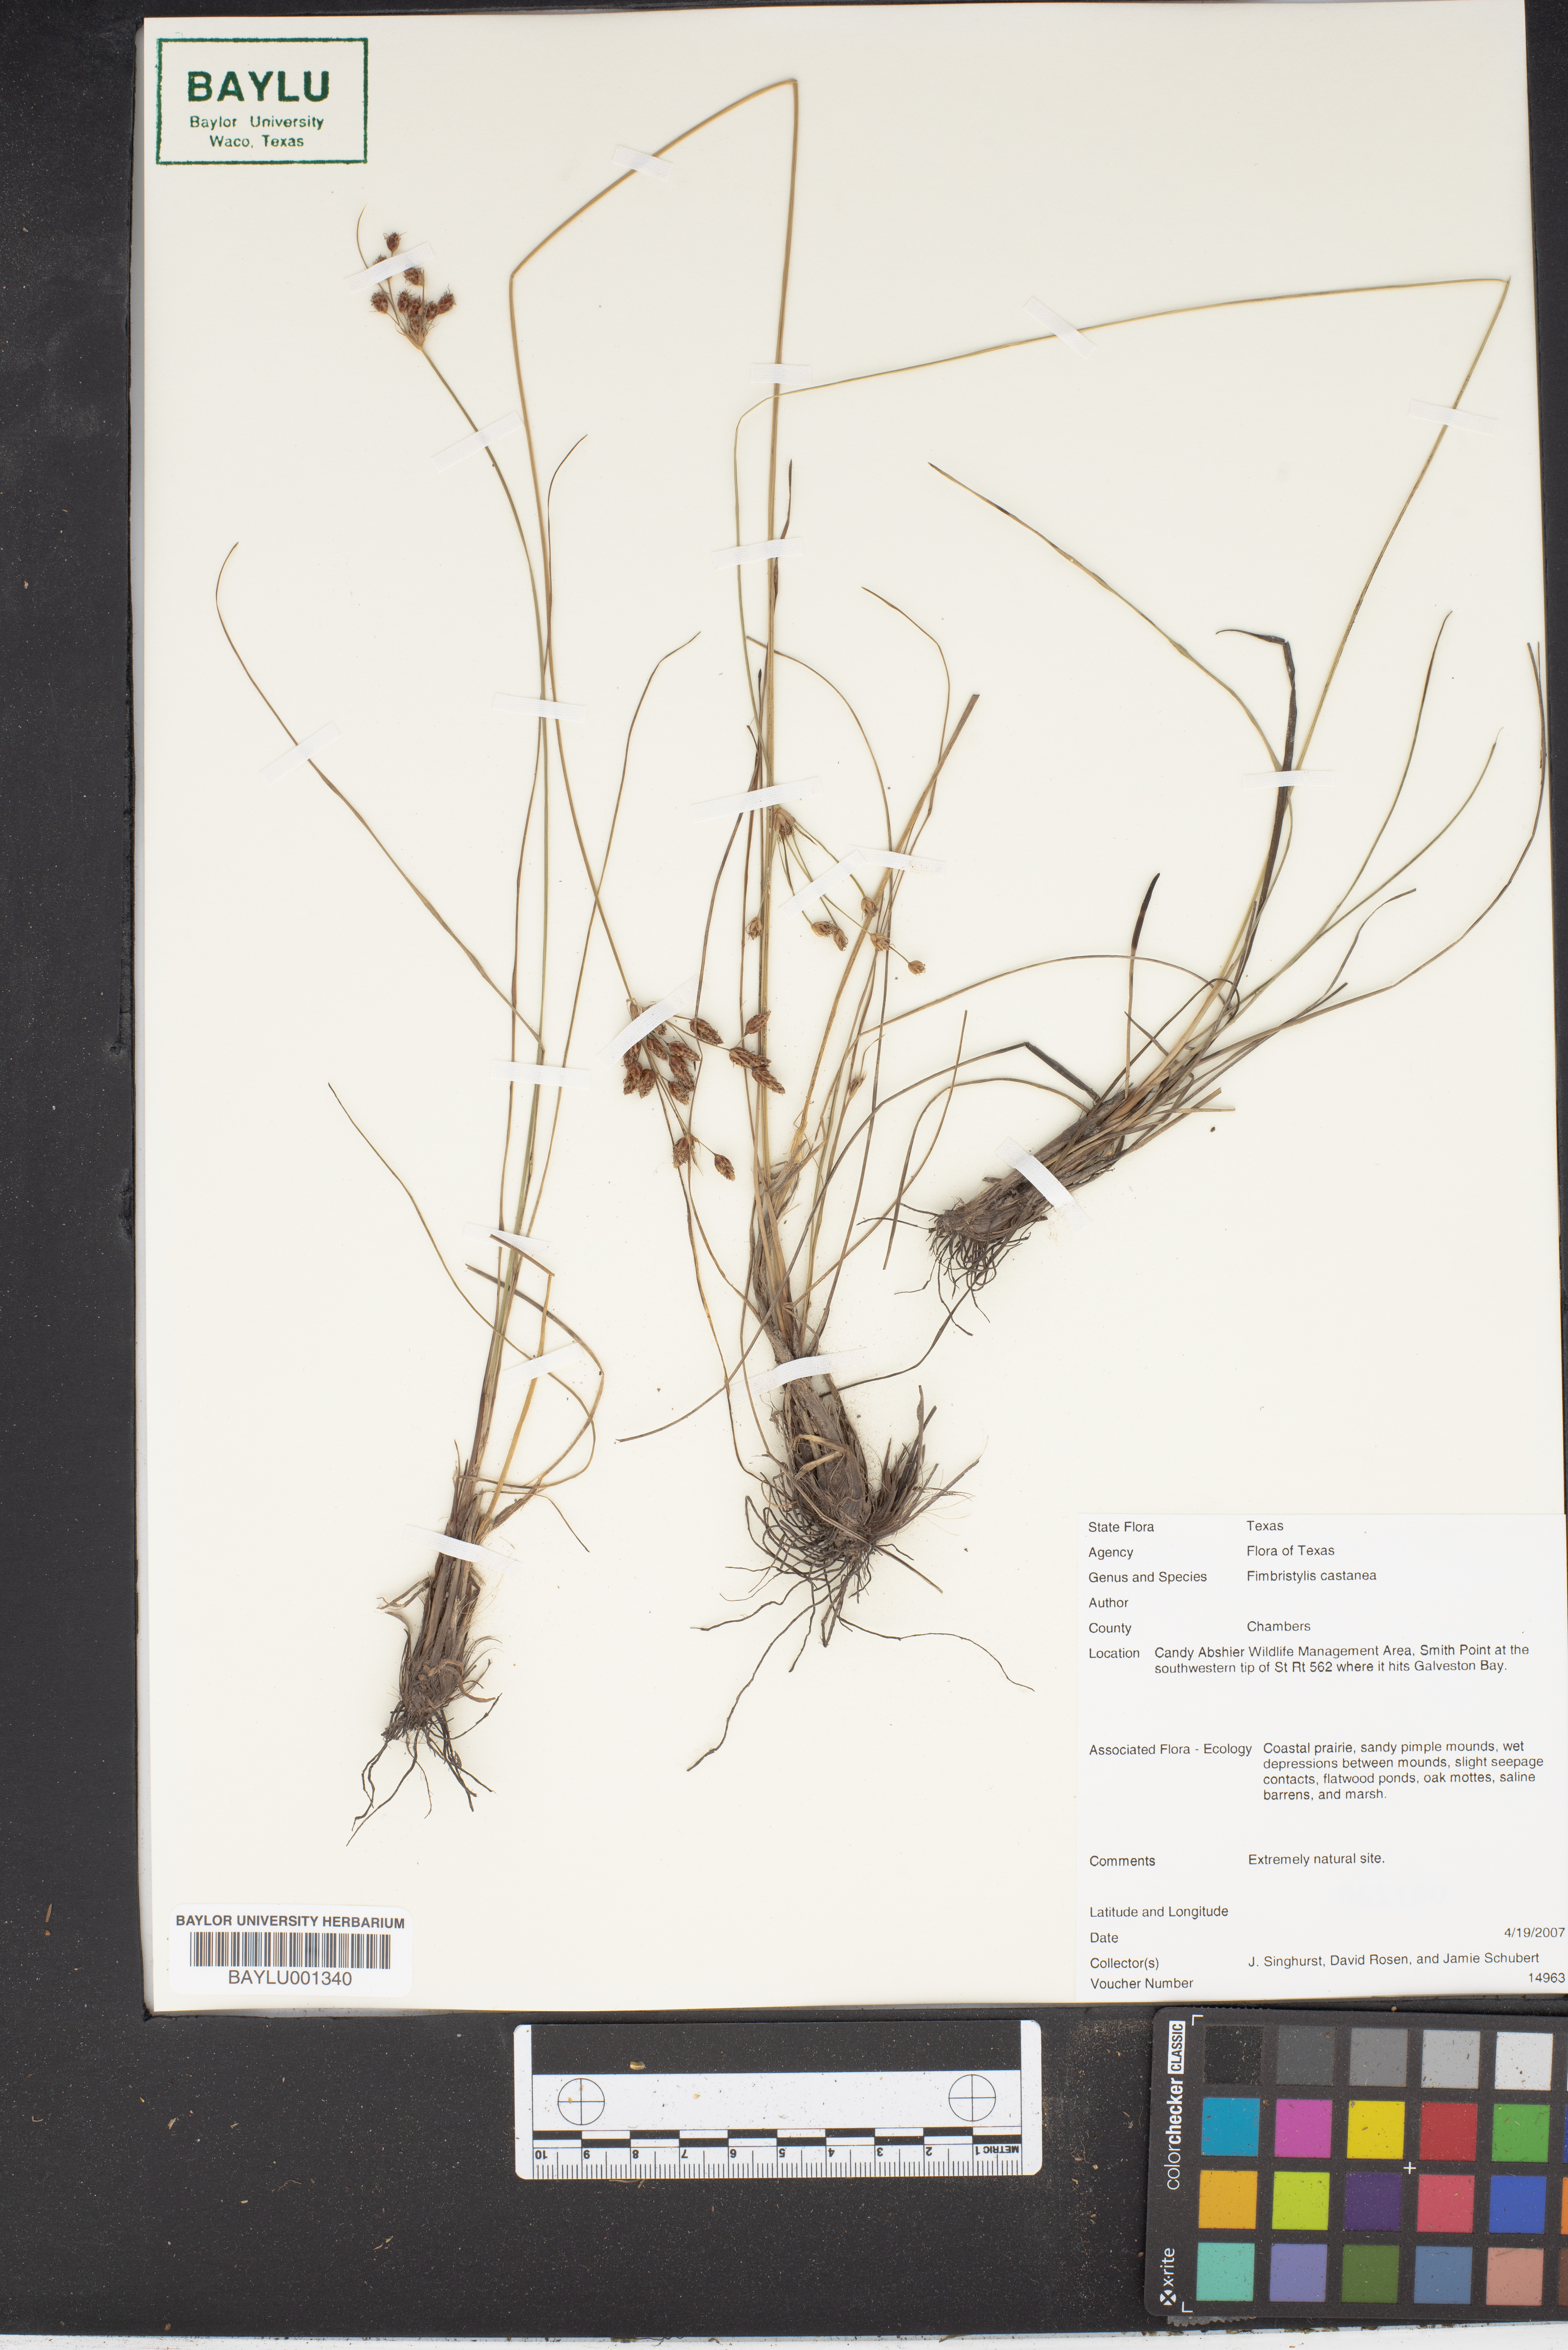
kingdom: Plantae
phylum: Tracheophyta
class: Liliopsida
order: Poales
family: Cyperaceae
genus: Fimbristylis
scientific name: Fimbristylis spadicea
